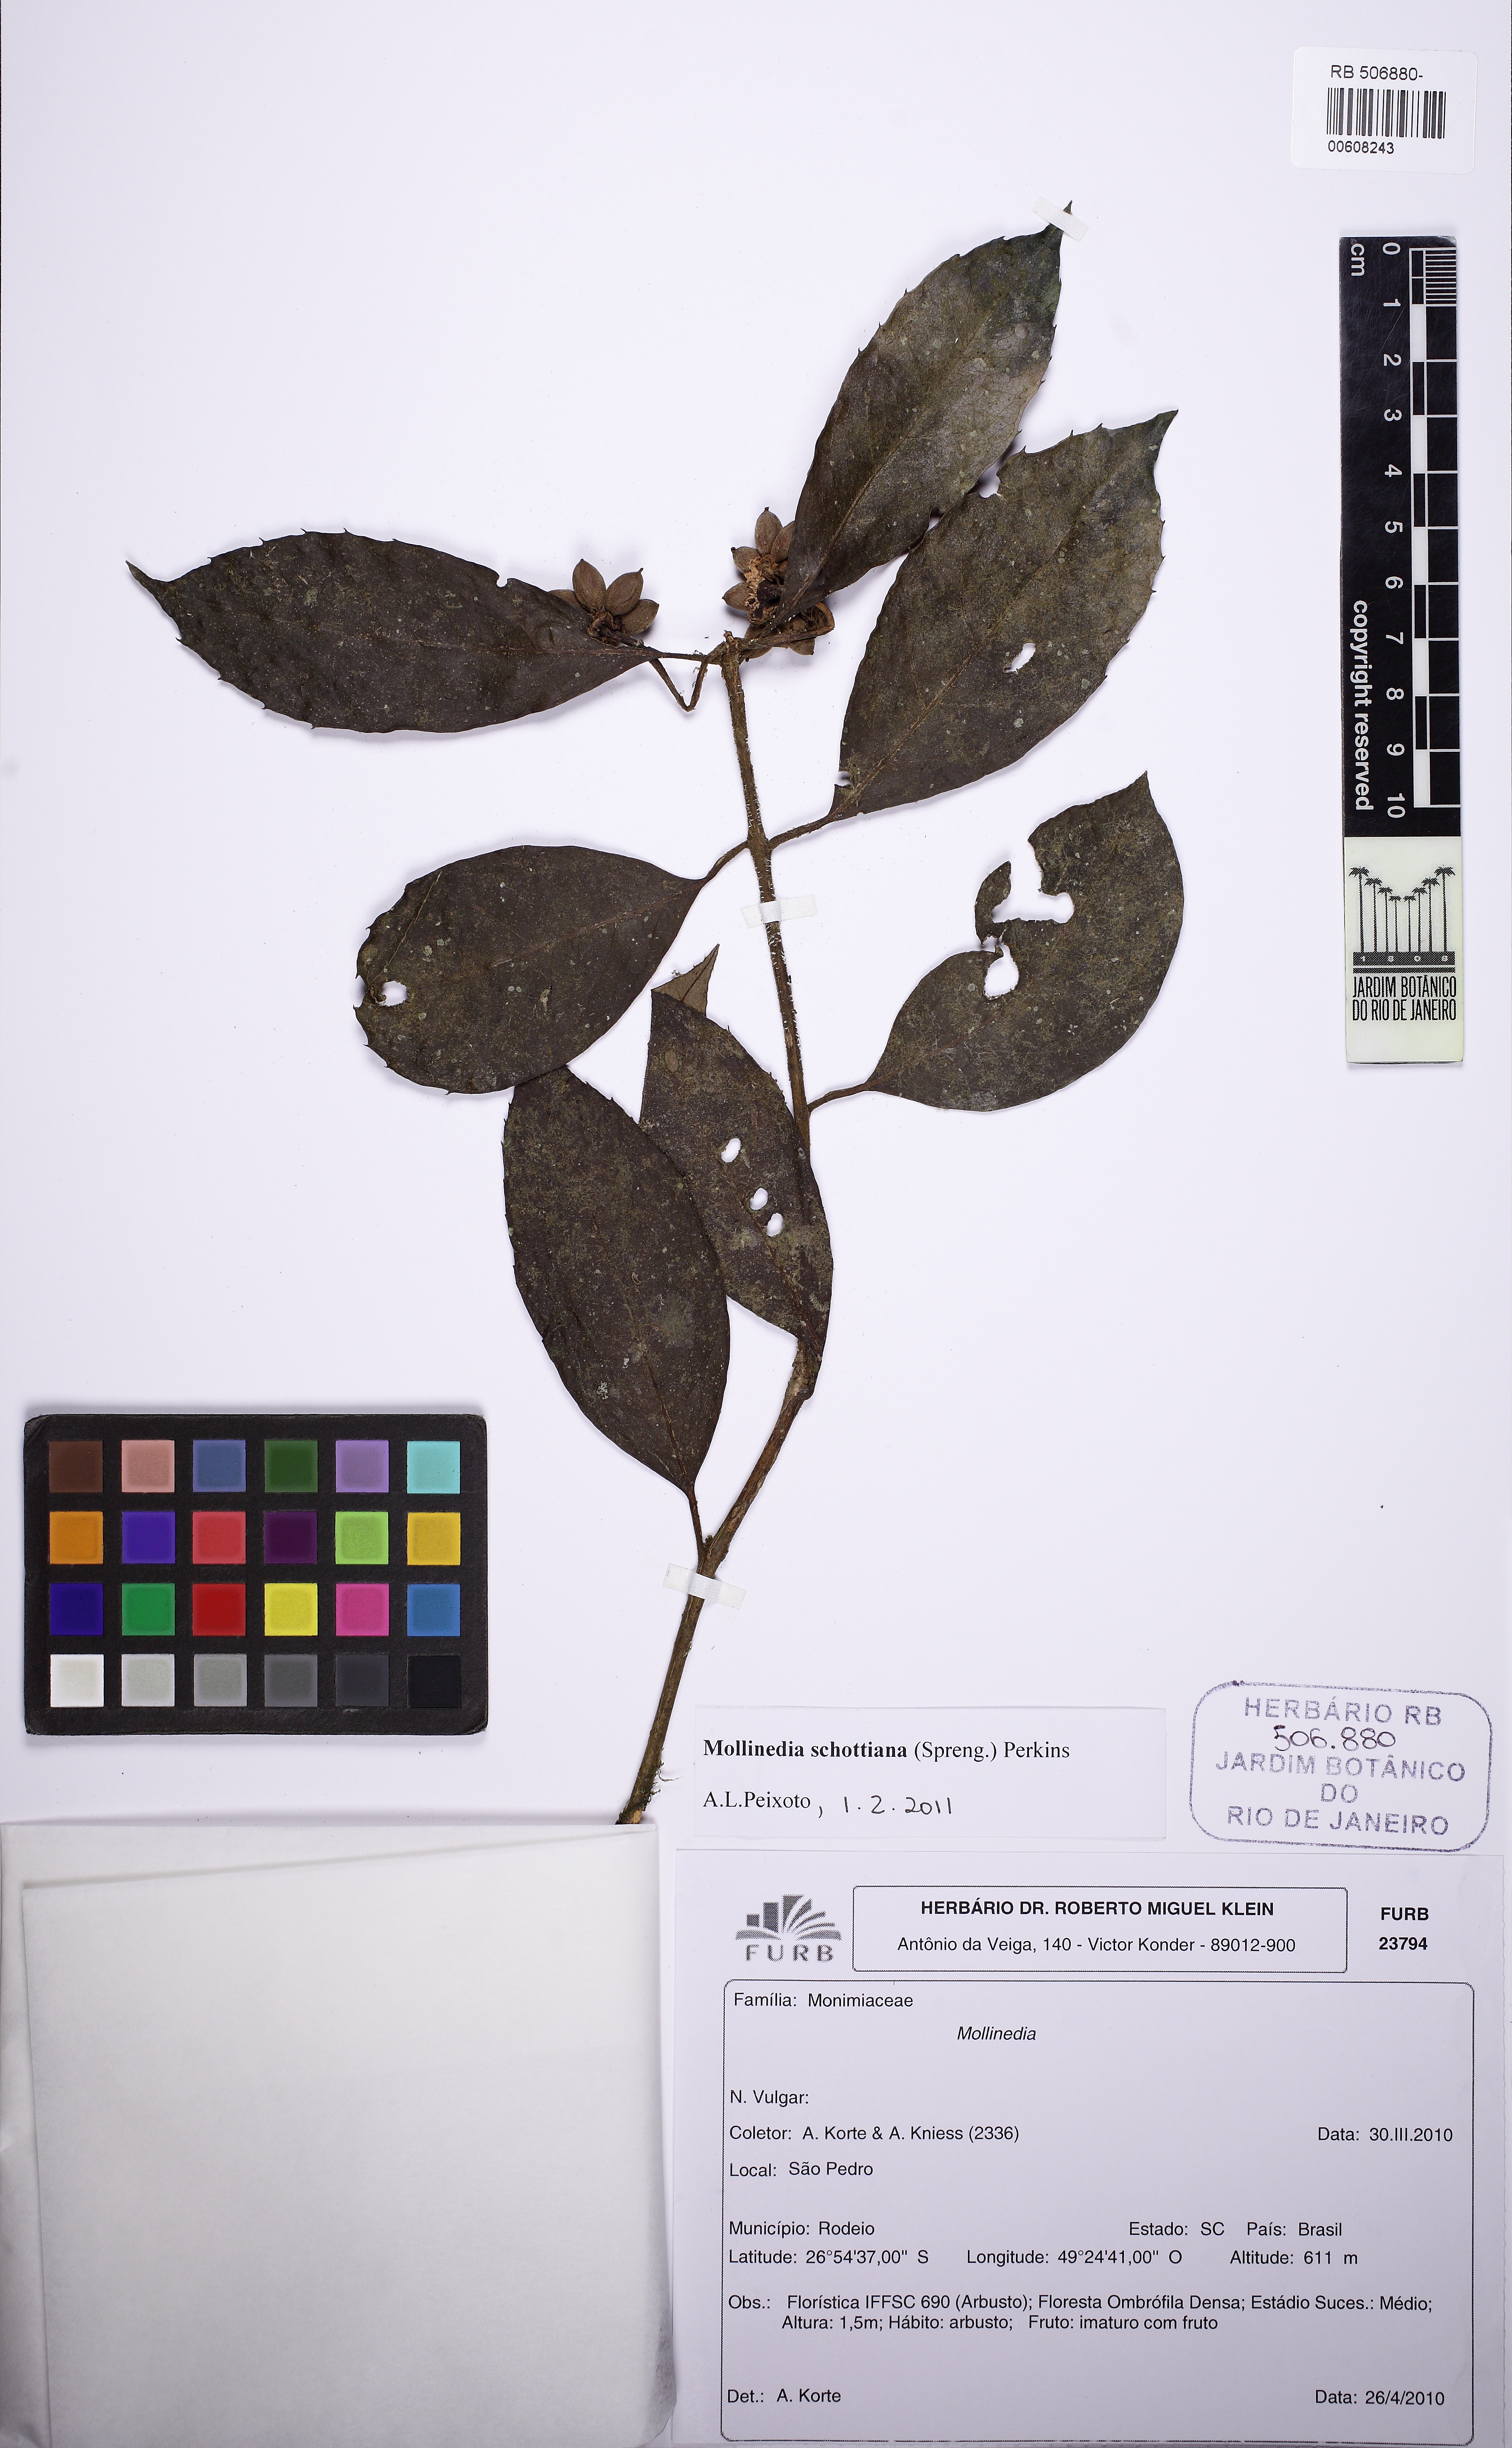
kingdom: Plantae
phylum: Tracheophyta
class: Magnoliopsida
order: Laurales
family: Monimiaceae
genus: Mollinedia
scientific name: Mollinedia umbellata
